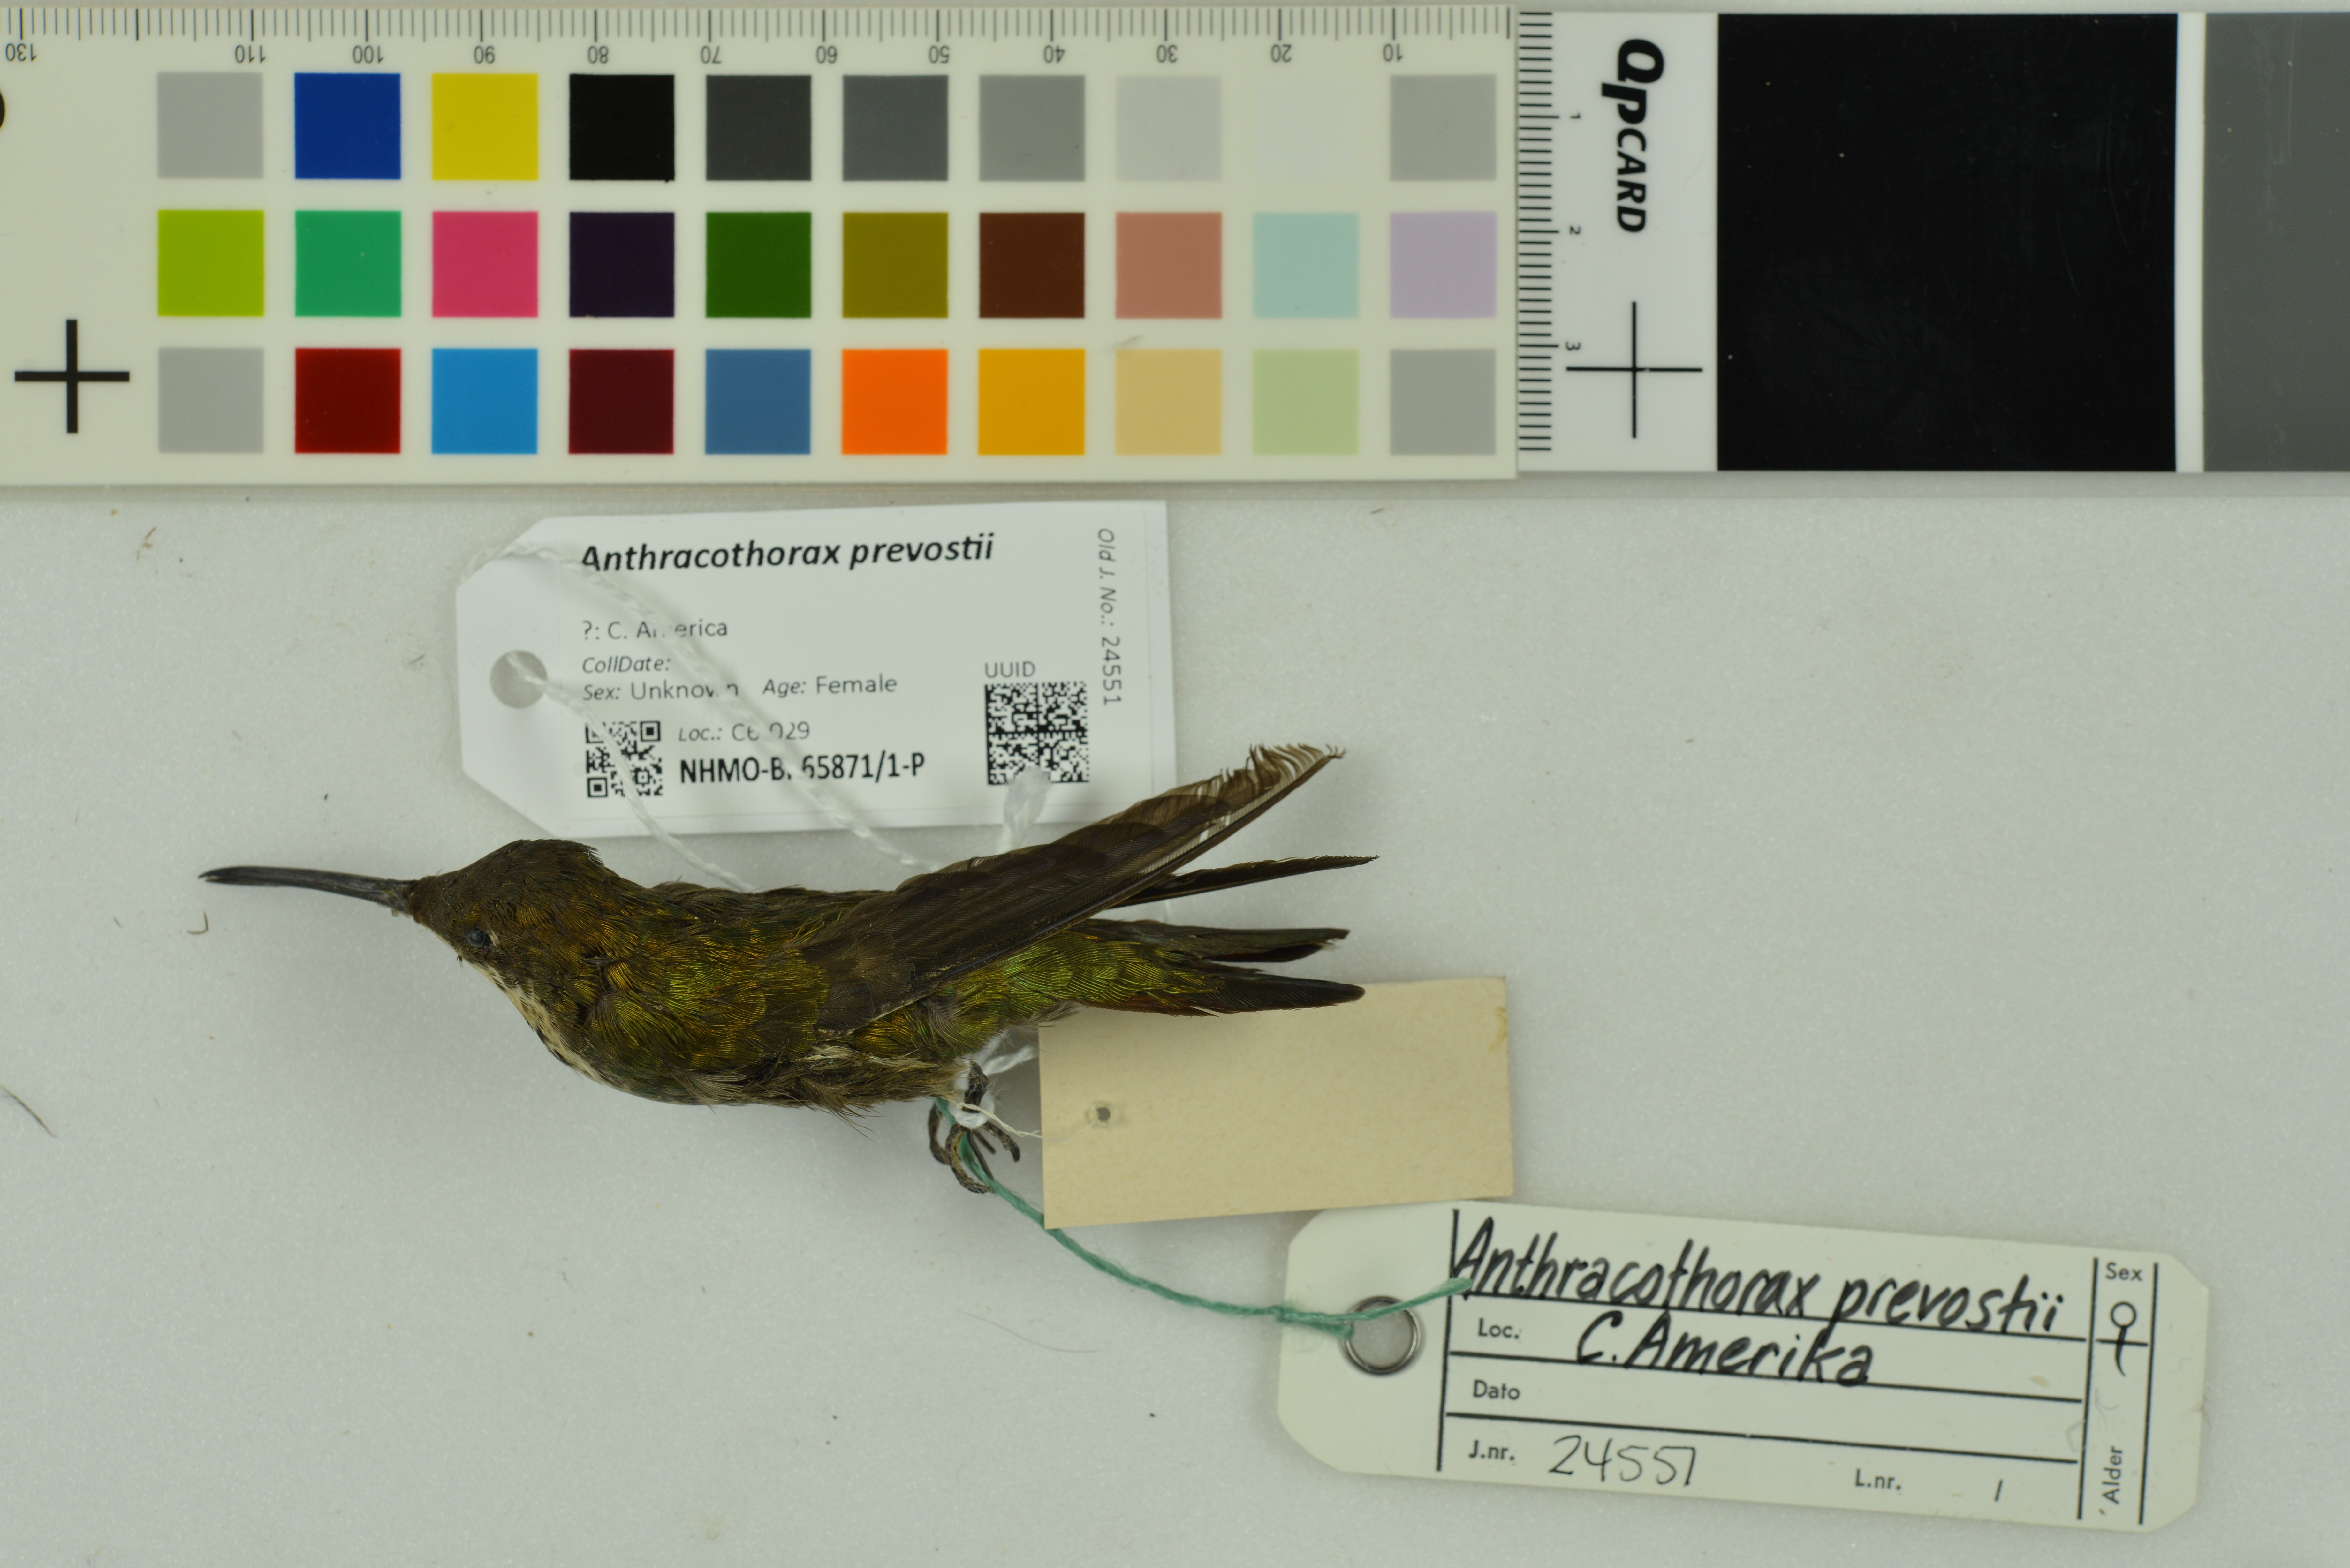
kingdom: Animalia
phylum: Chordata
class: Aves
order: Apodiformes
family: Trochilidae
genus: Anthracothorax
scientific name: Anthracothorax prevostii
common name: Green-breasted mango
